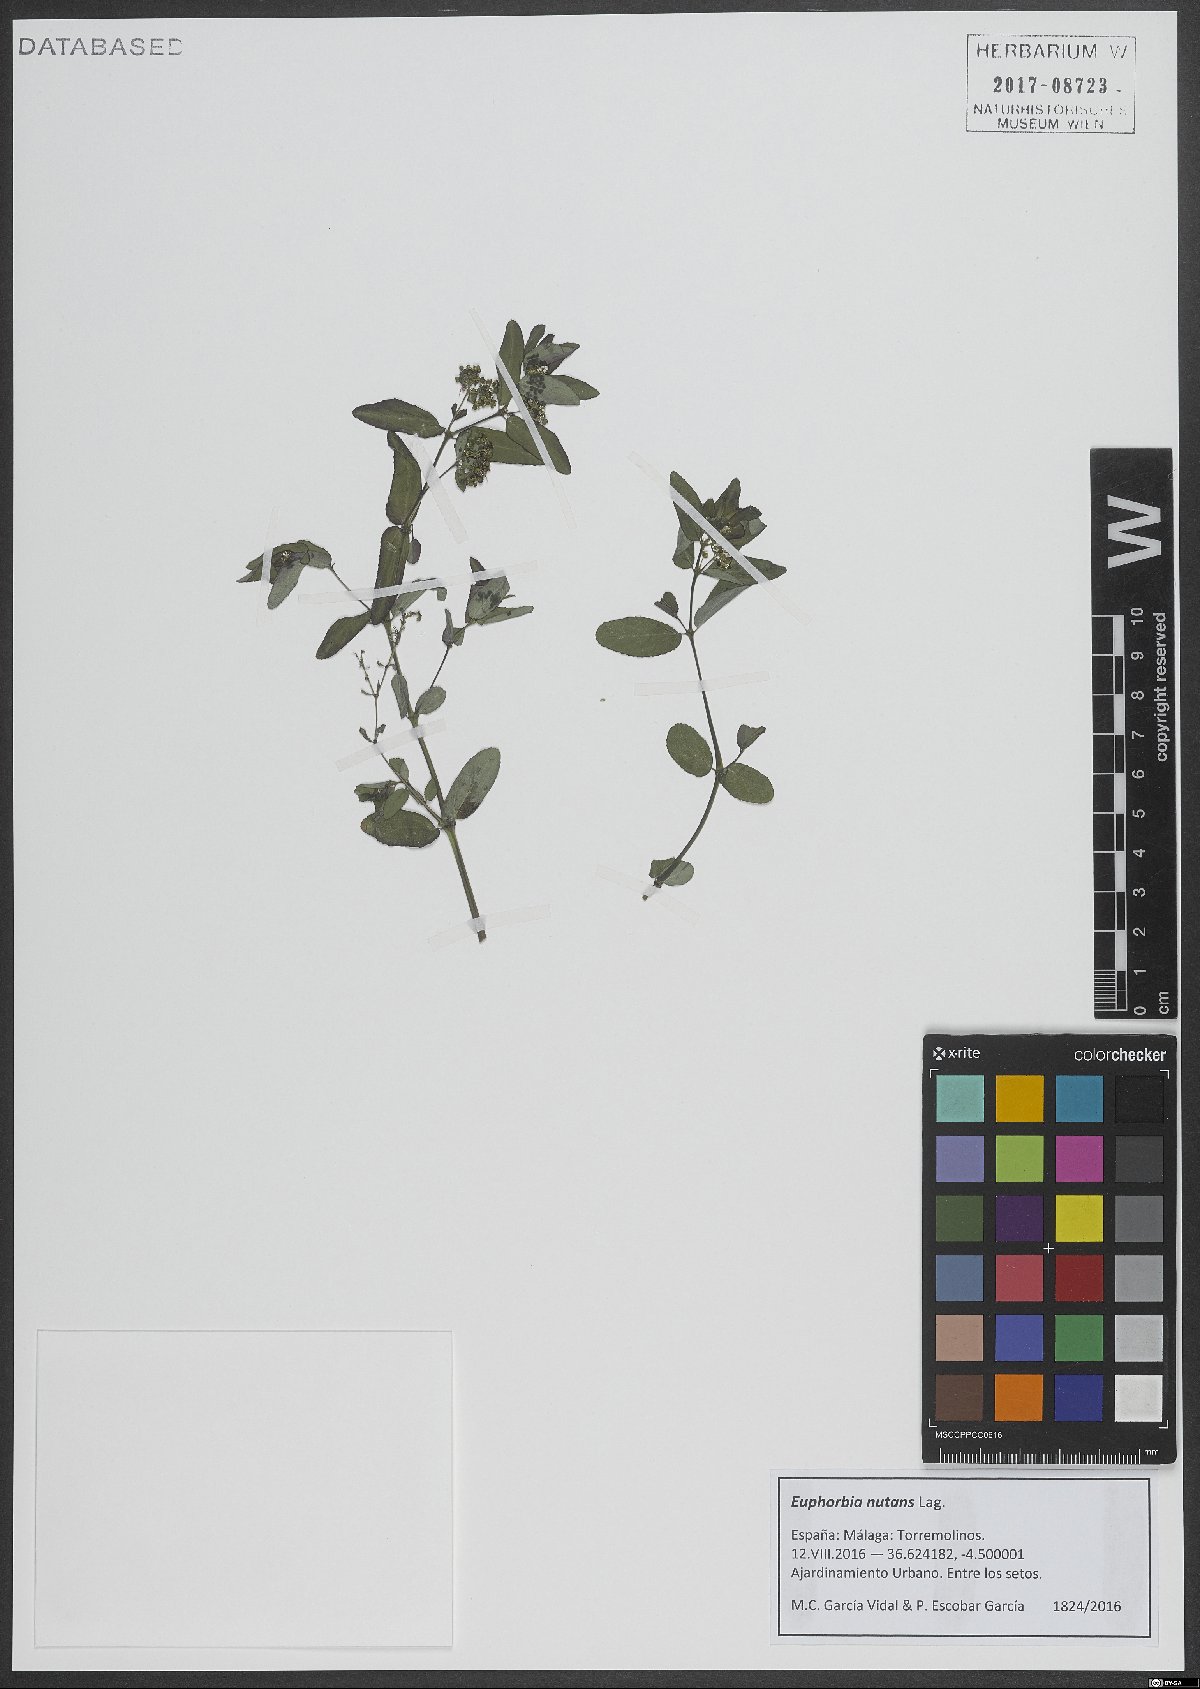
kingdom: Plantae
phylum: Tracheophyta
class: Magnoliopsida
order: Malpighiales
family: Euphorbiaceae
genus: Euphorbia
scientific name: Euphorbia nutans
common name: Eyebane
